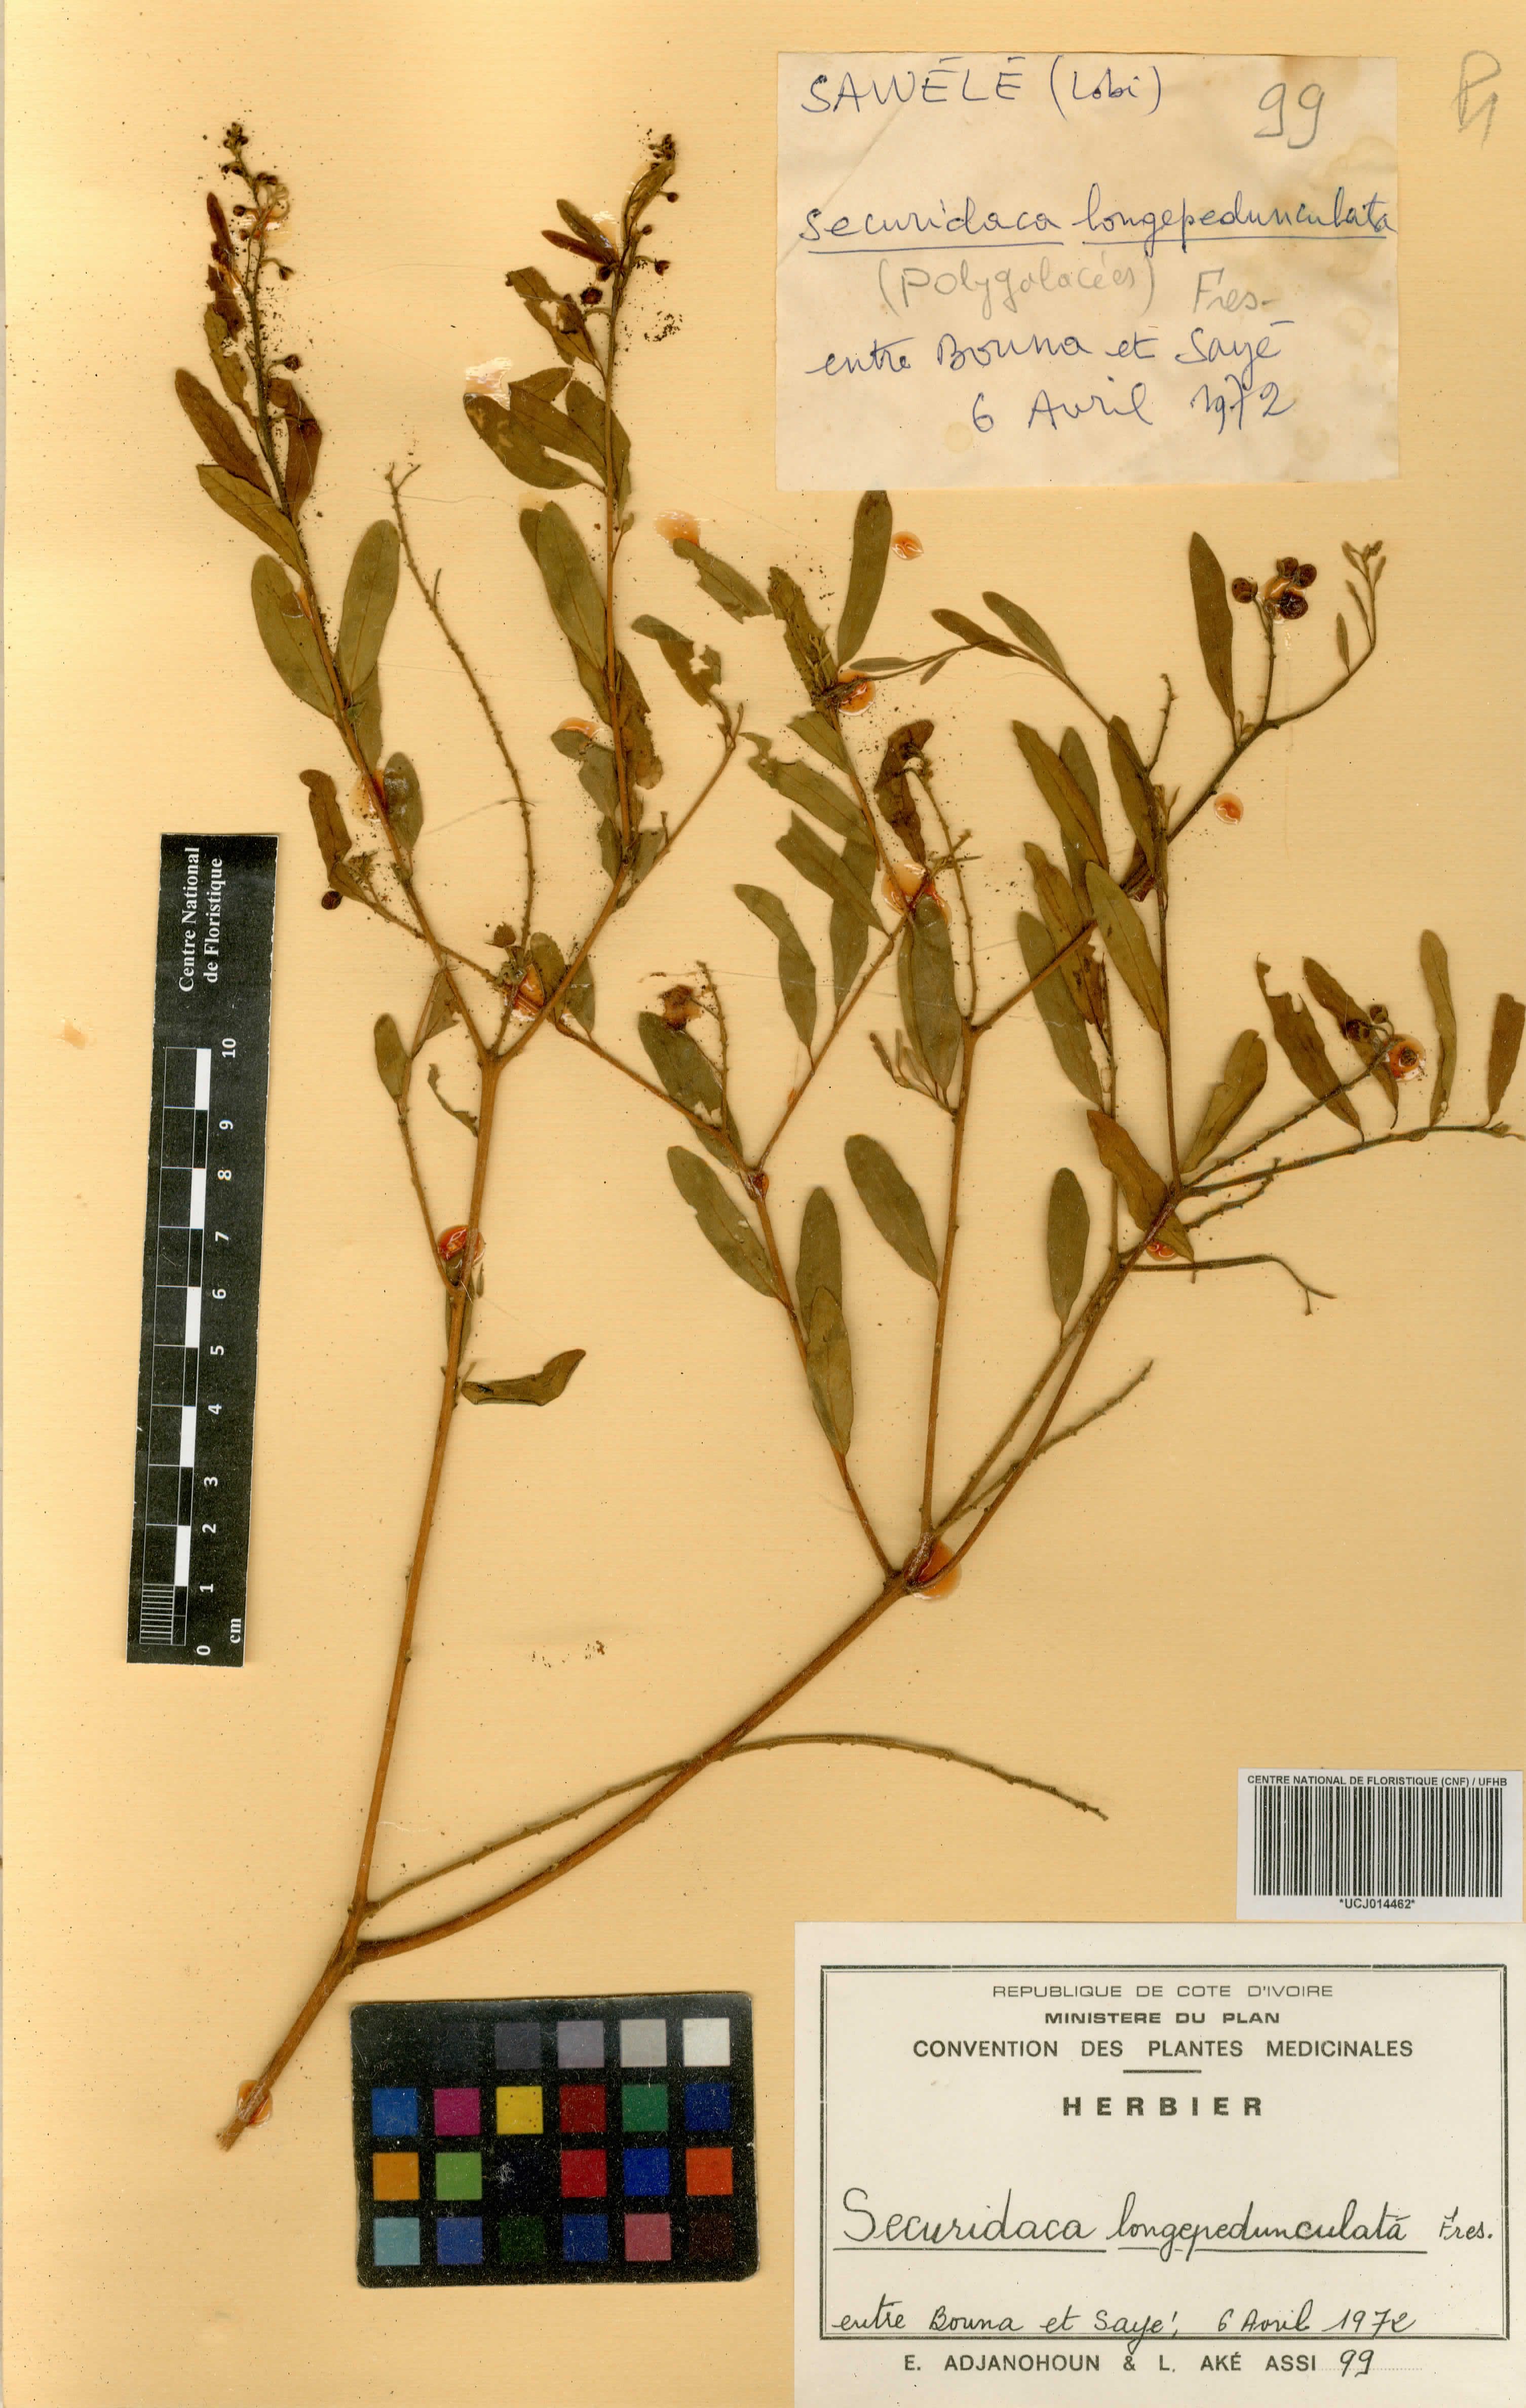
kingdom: Plantae
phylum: Tracheophyta
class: Magnoliopsida
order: Fabales
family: Polygalaceae
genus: Securidaca
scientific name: Securidaca longepedunculata
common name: Violet tree
